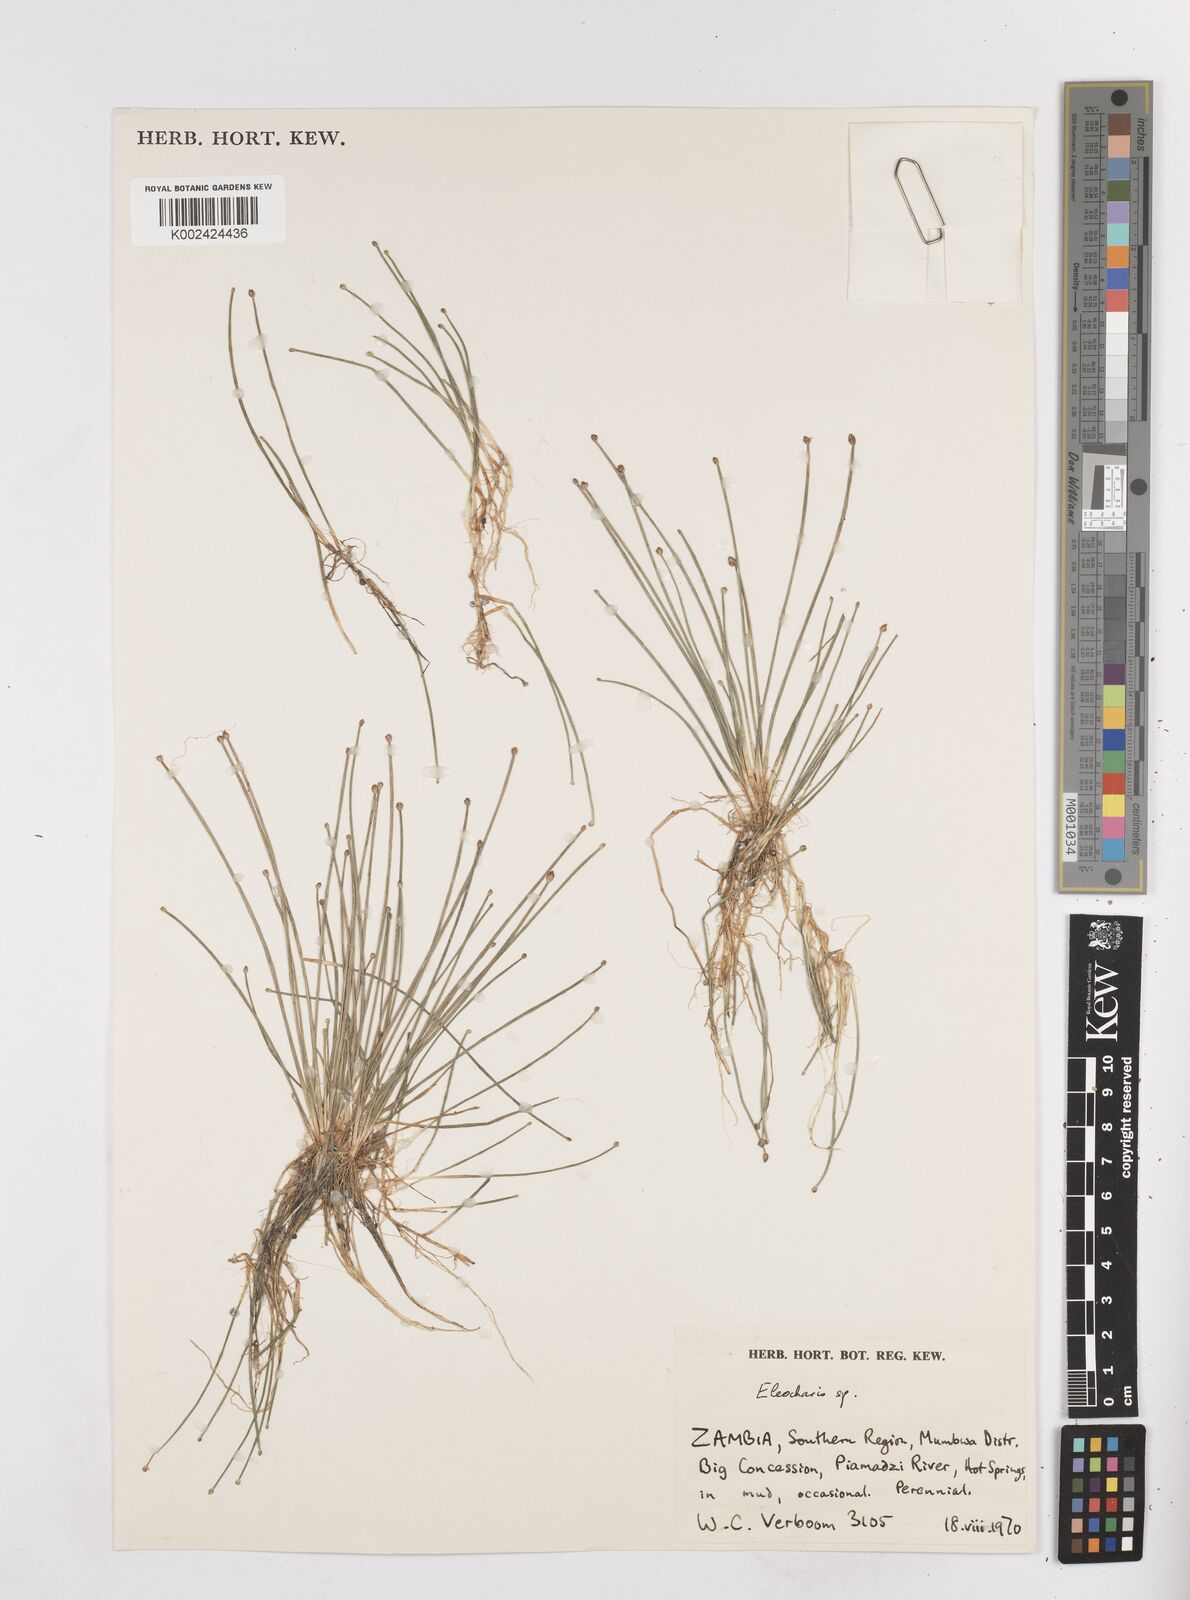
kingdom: Plantae
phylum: Tracheophyta
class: Liliopsida
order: Poales
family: Cyperaceae
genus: Eleocharis
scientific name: Eleocharis
